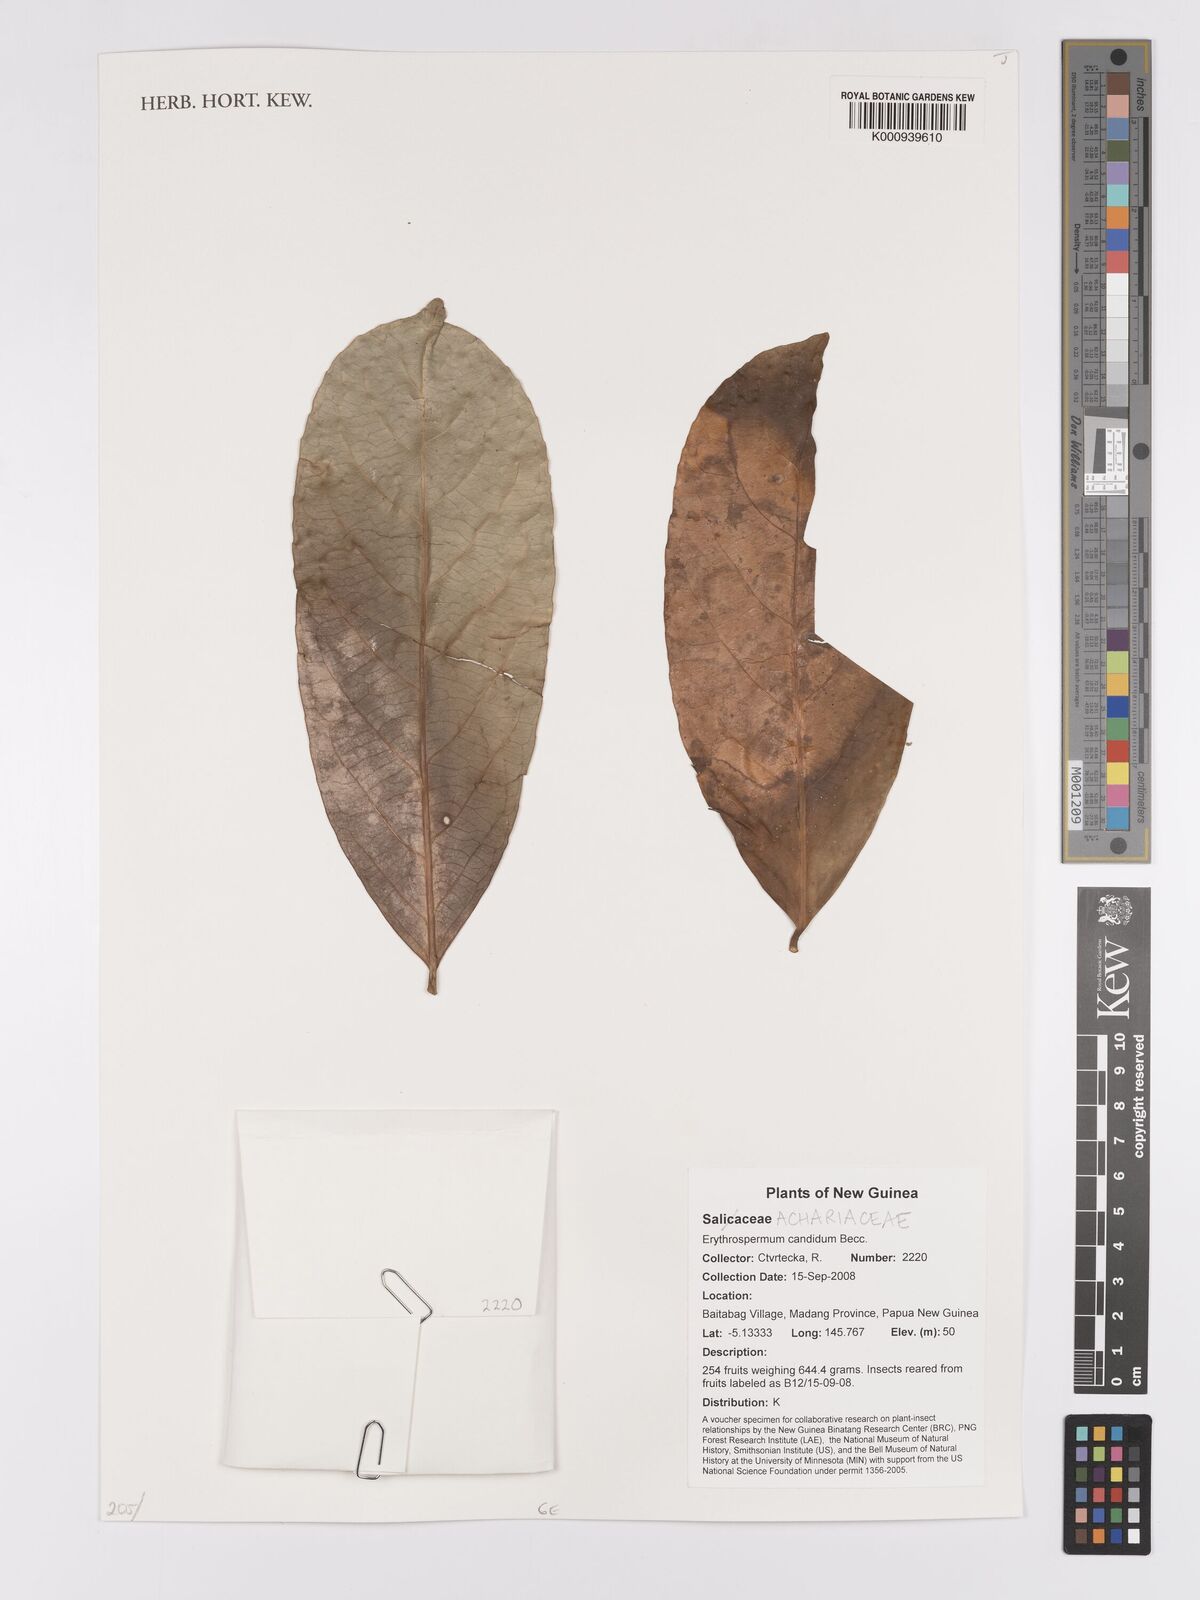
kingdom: Plantae
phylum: Tracheophyta
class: Magnoliopsida
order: Malpighiales
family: Achariaceae
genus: Erythrospermum
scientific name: Erythrospermum candidum
